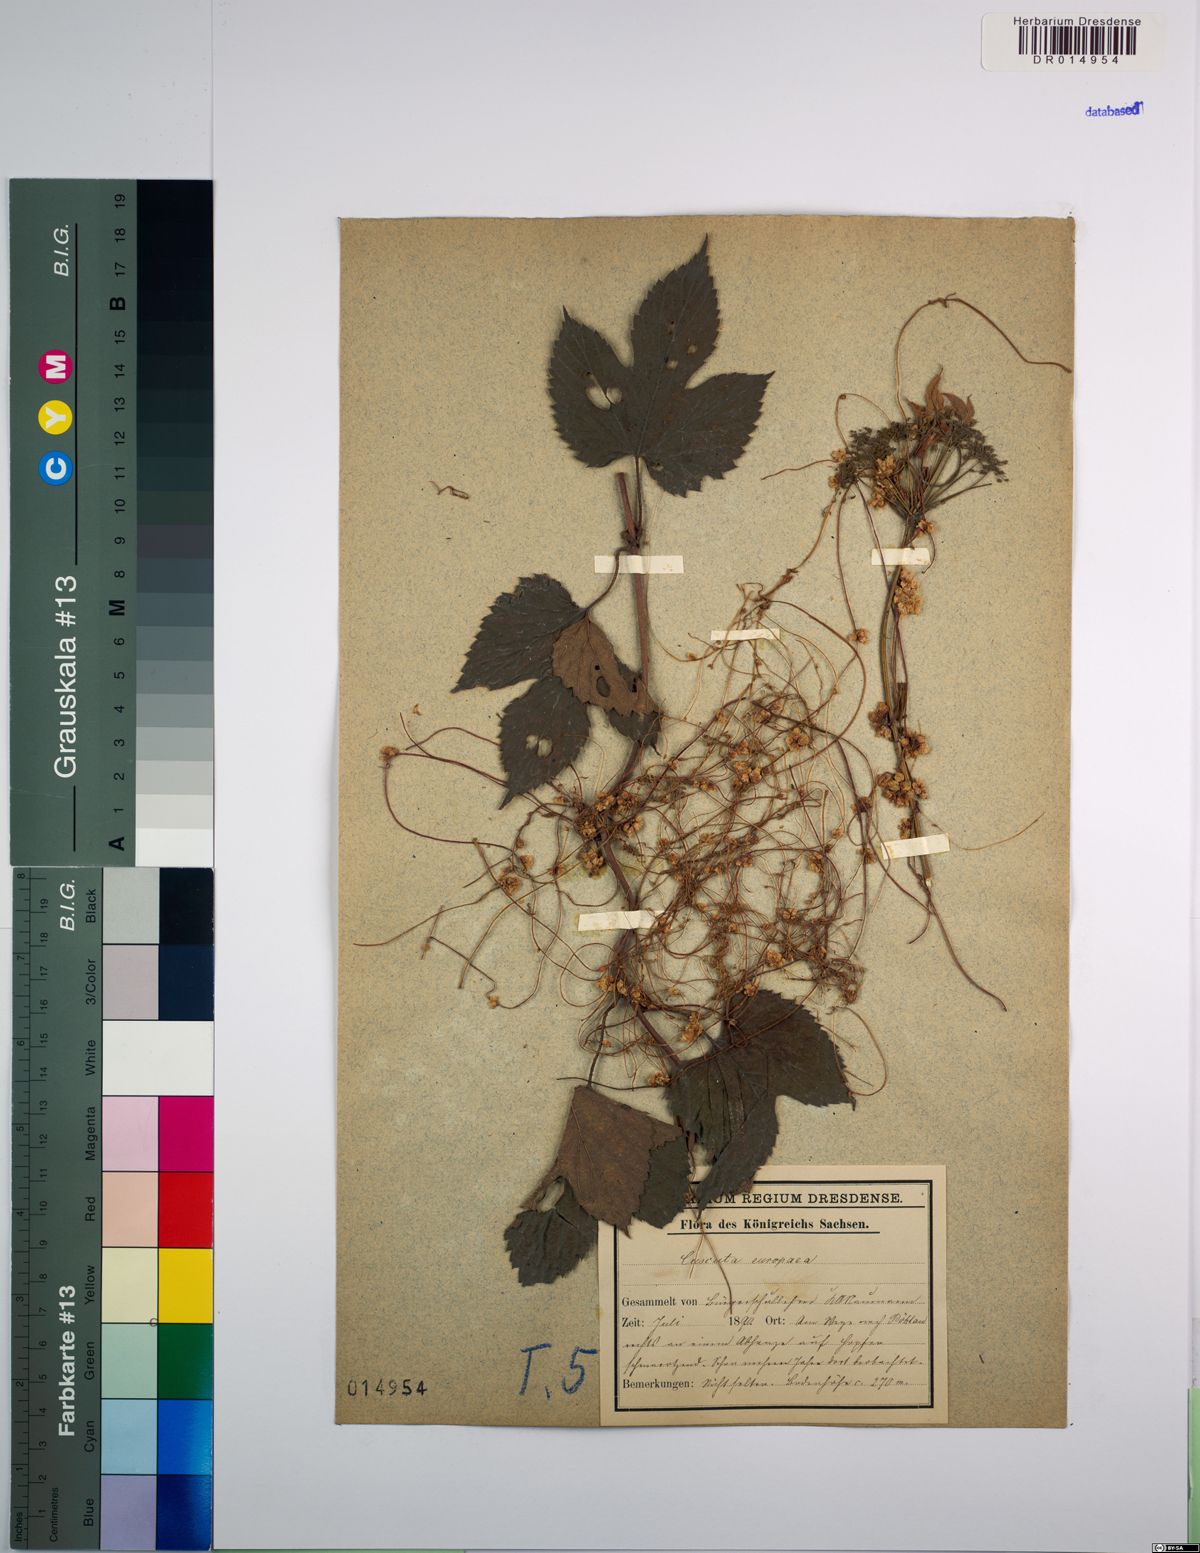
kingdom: Plantae
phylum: Tracheophyta
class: Magnoliopsida
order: Solanales
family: Convolvulaceae
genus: Cuscuta
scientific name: Cuscuta europaea
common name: Greater dodder
